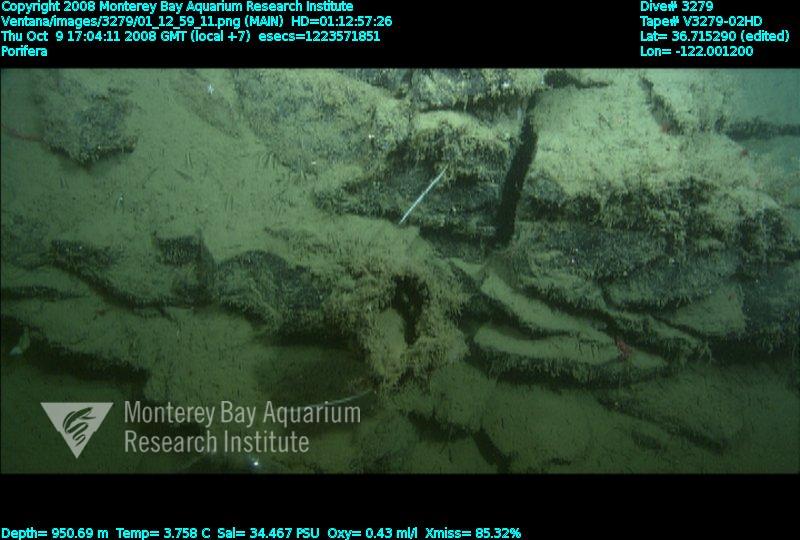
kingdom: Animalia
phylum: Porifera
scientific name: Porifera
